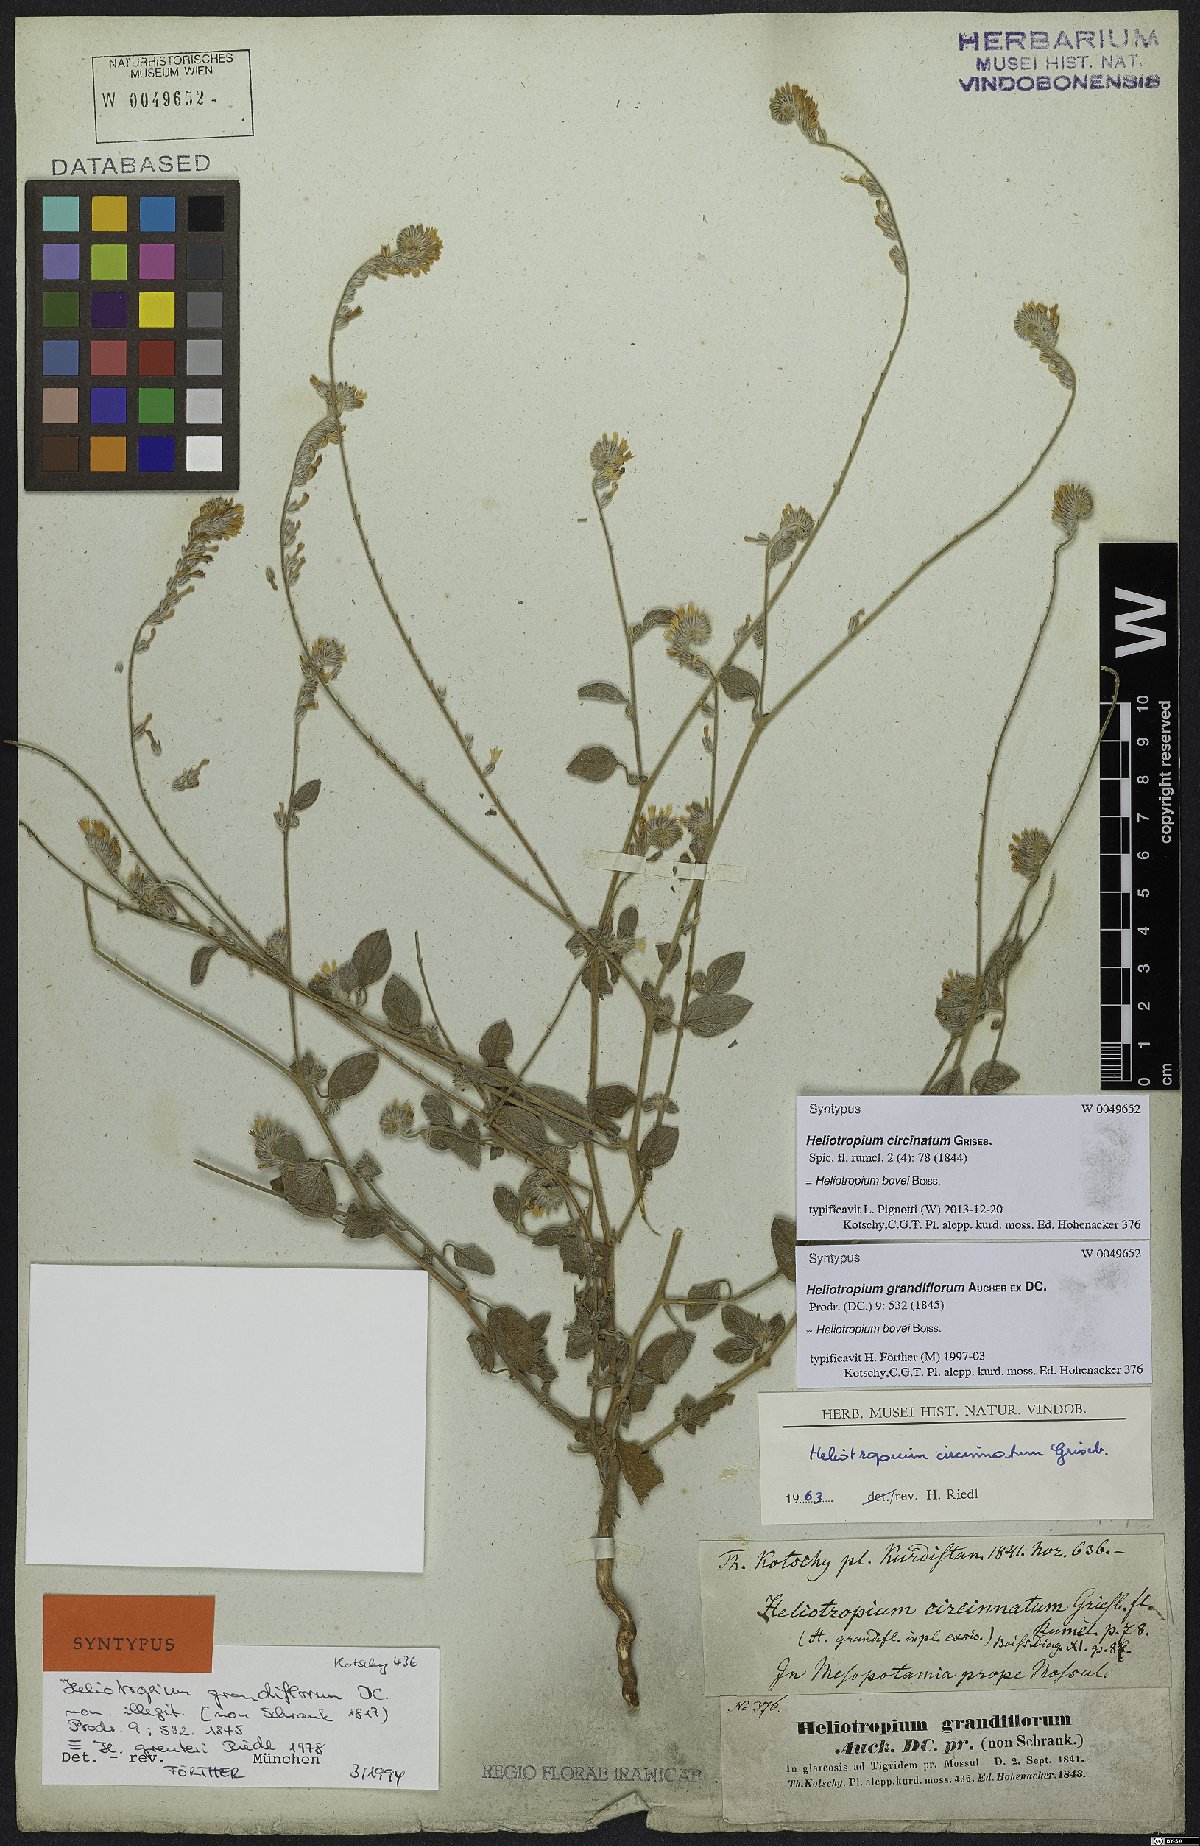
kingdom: Plantae
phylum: Tracheophyta
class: Magnoliopsida
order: Boraginales
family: Heliotropiaceae
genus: Heliotropium
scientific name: Heliotropium bovei
